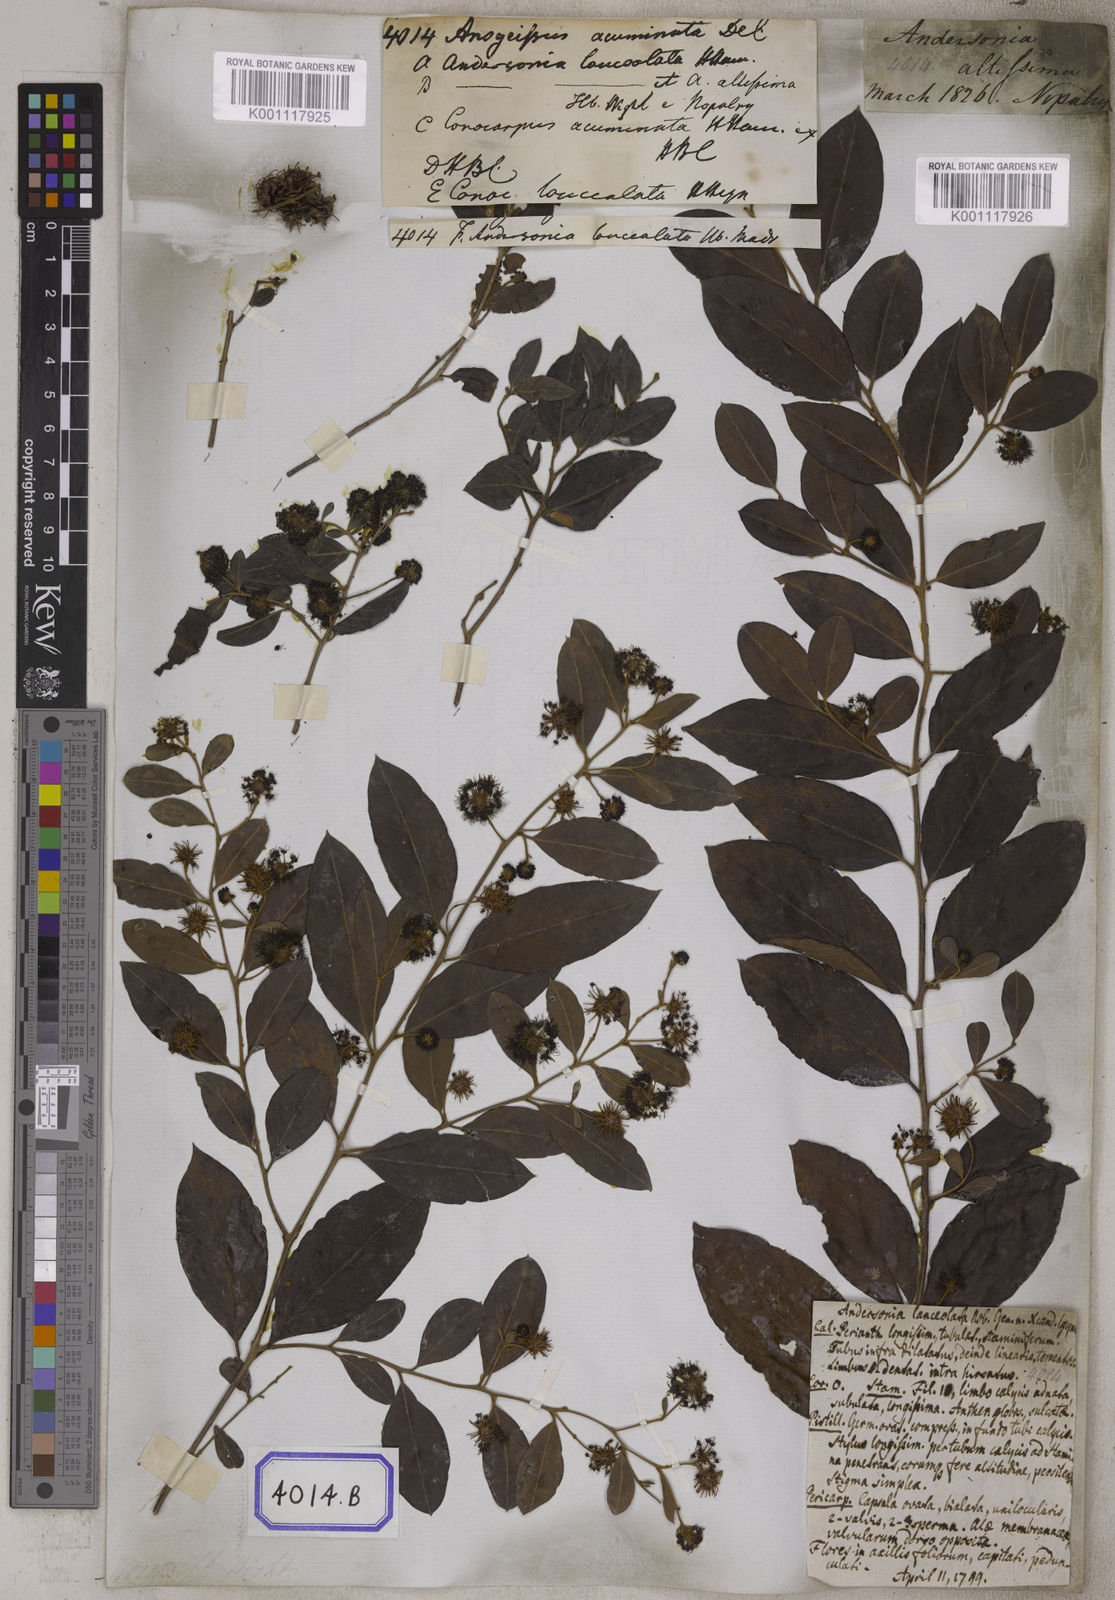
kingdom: Plantae
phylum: Tracheophyta
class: Magnoliopsida
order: Myrtales
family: Combretaceae
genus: Anogeissus
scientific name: Anogeissus
